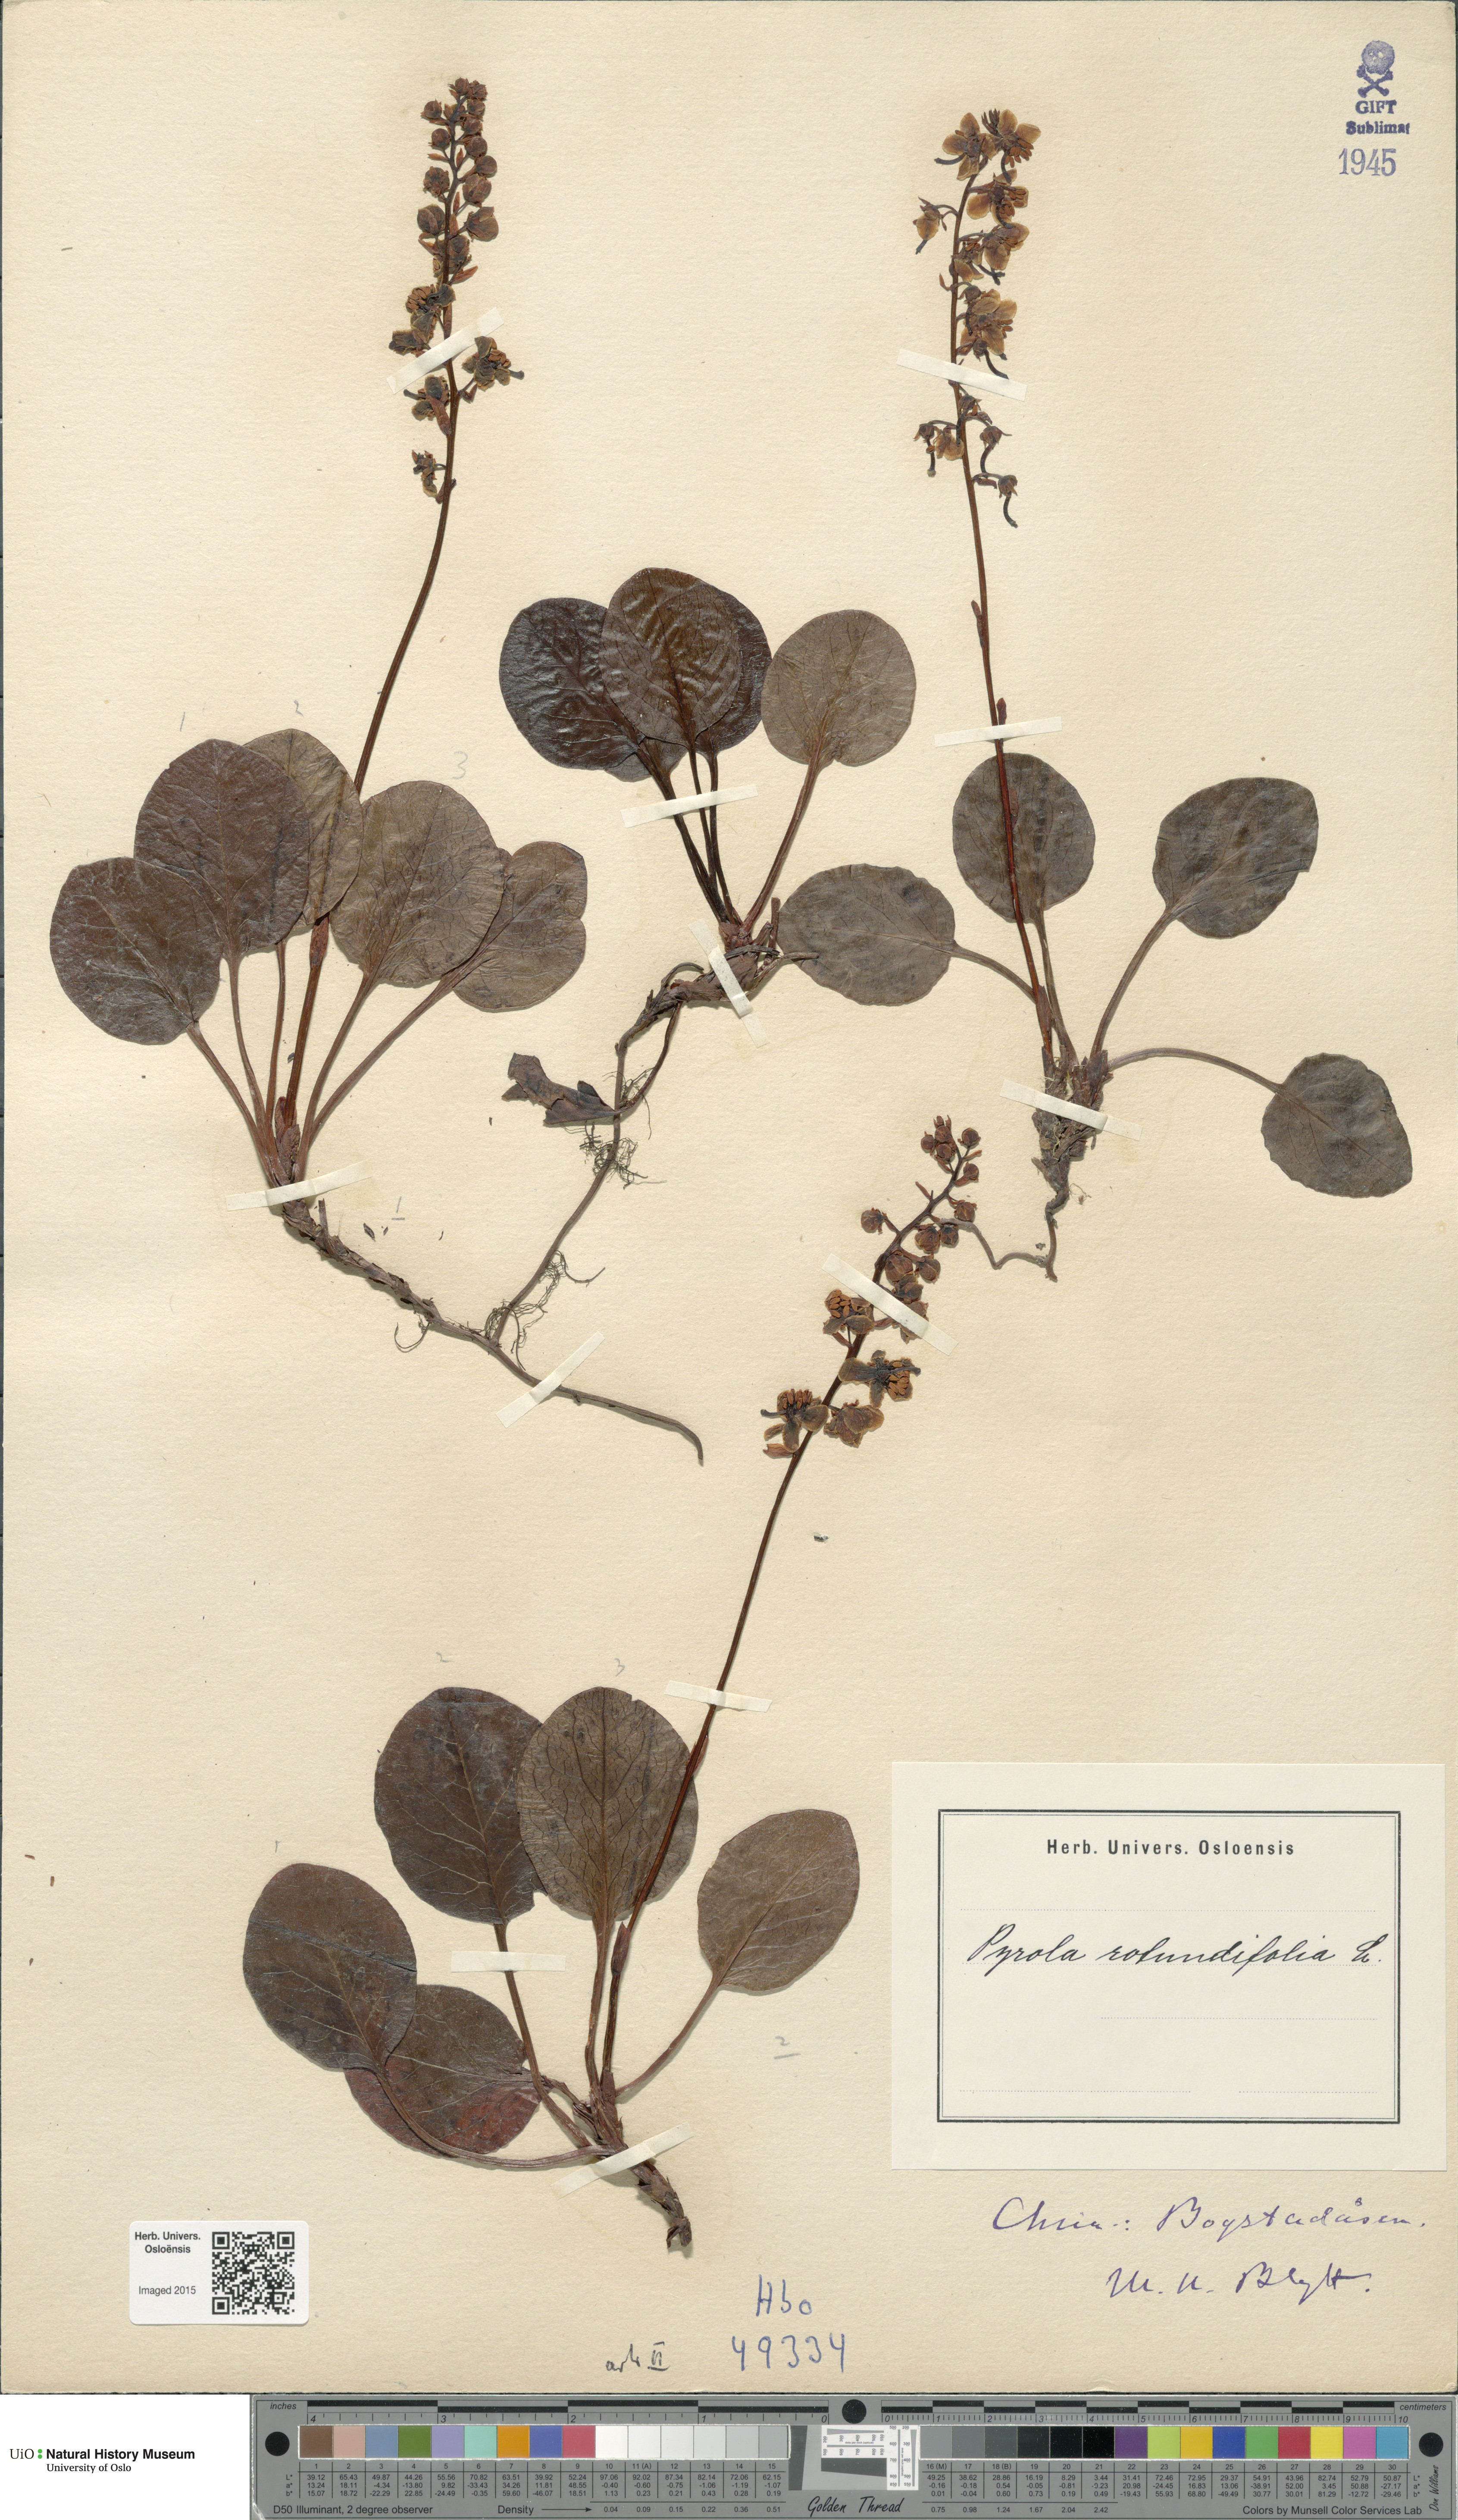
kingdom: Plantae
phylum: Tracheophyta
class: Magnoliopsida
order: Ericales
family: Ericaceae
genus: Pyrola
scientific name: Pyrola rotundifolia
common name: Round-leaved wintergreen
